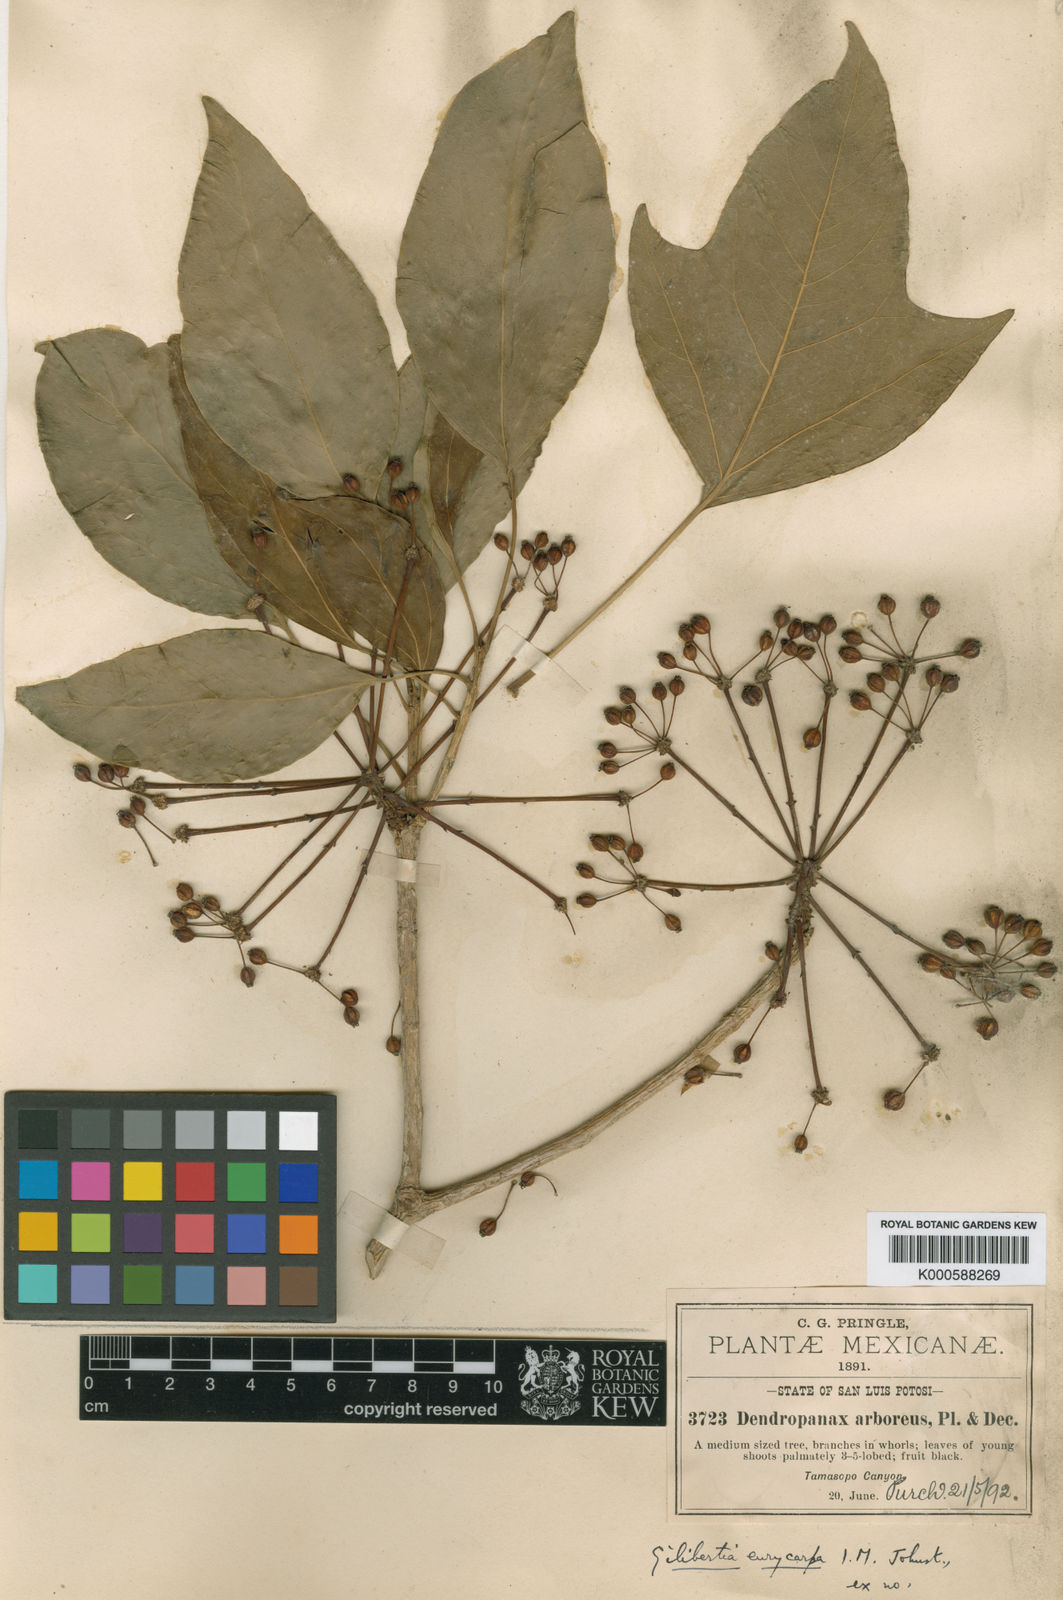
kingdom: Plantae
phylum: Tracheophyta
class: Magnoliopsida
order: Apiales
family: Araliaceae
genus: Dendropanax
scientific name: Dendropanax
